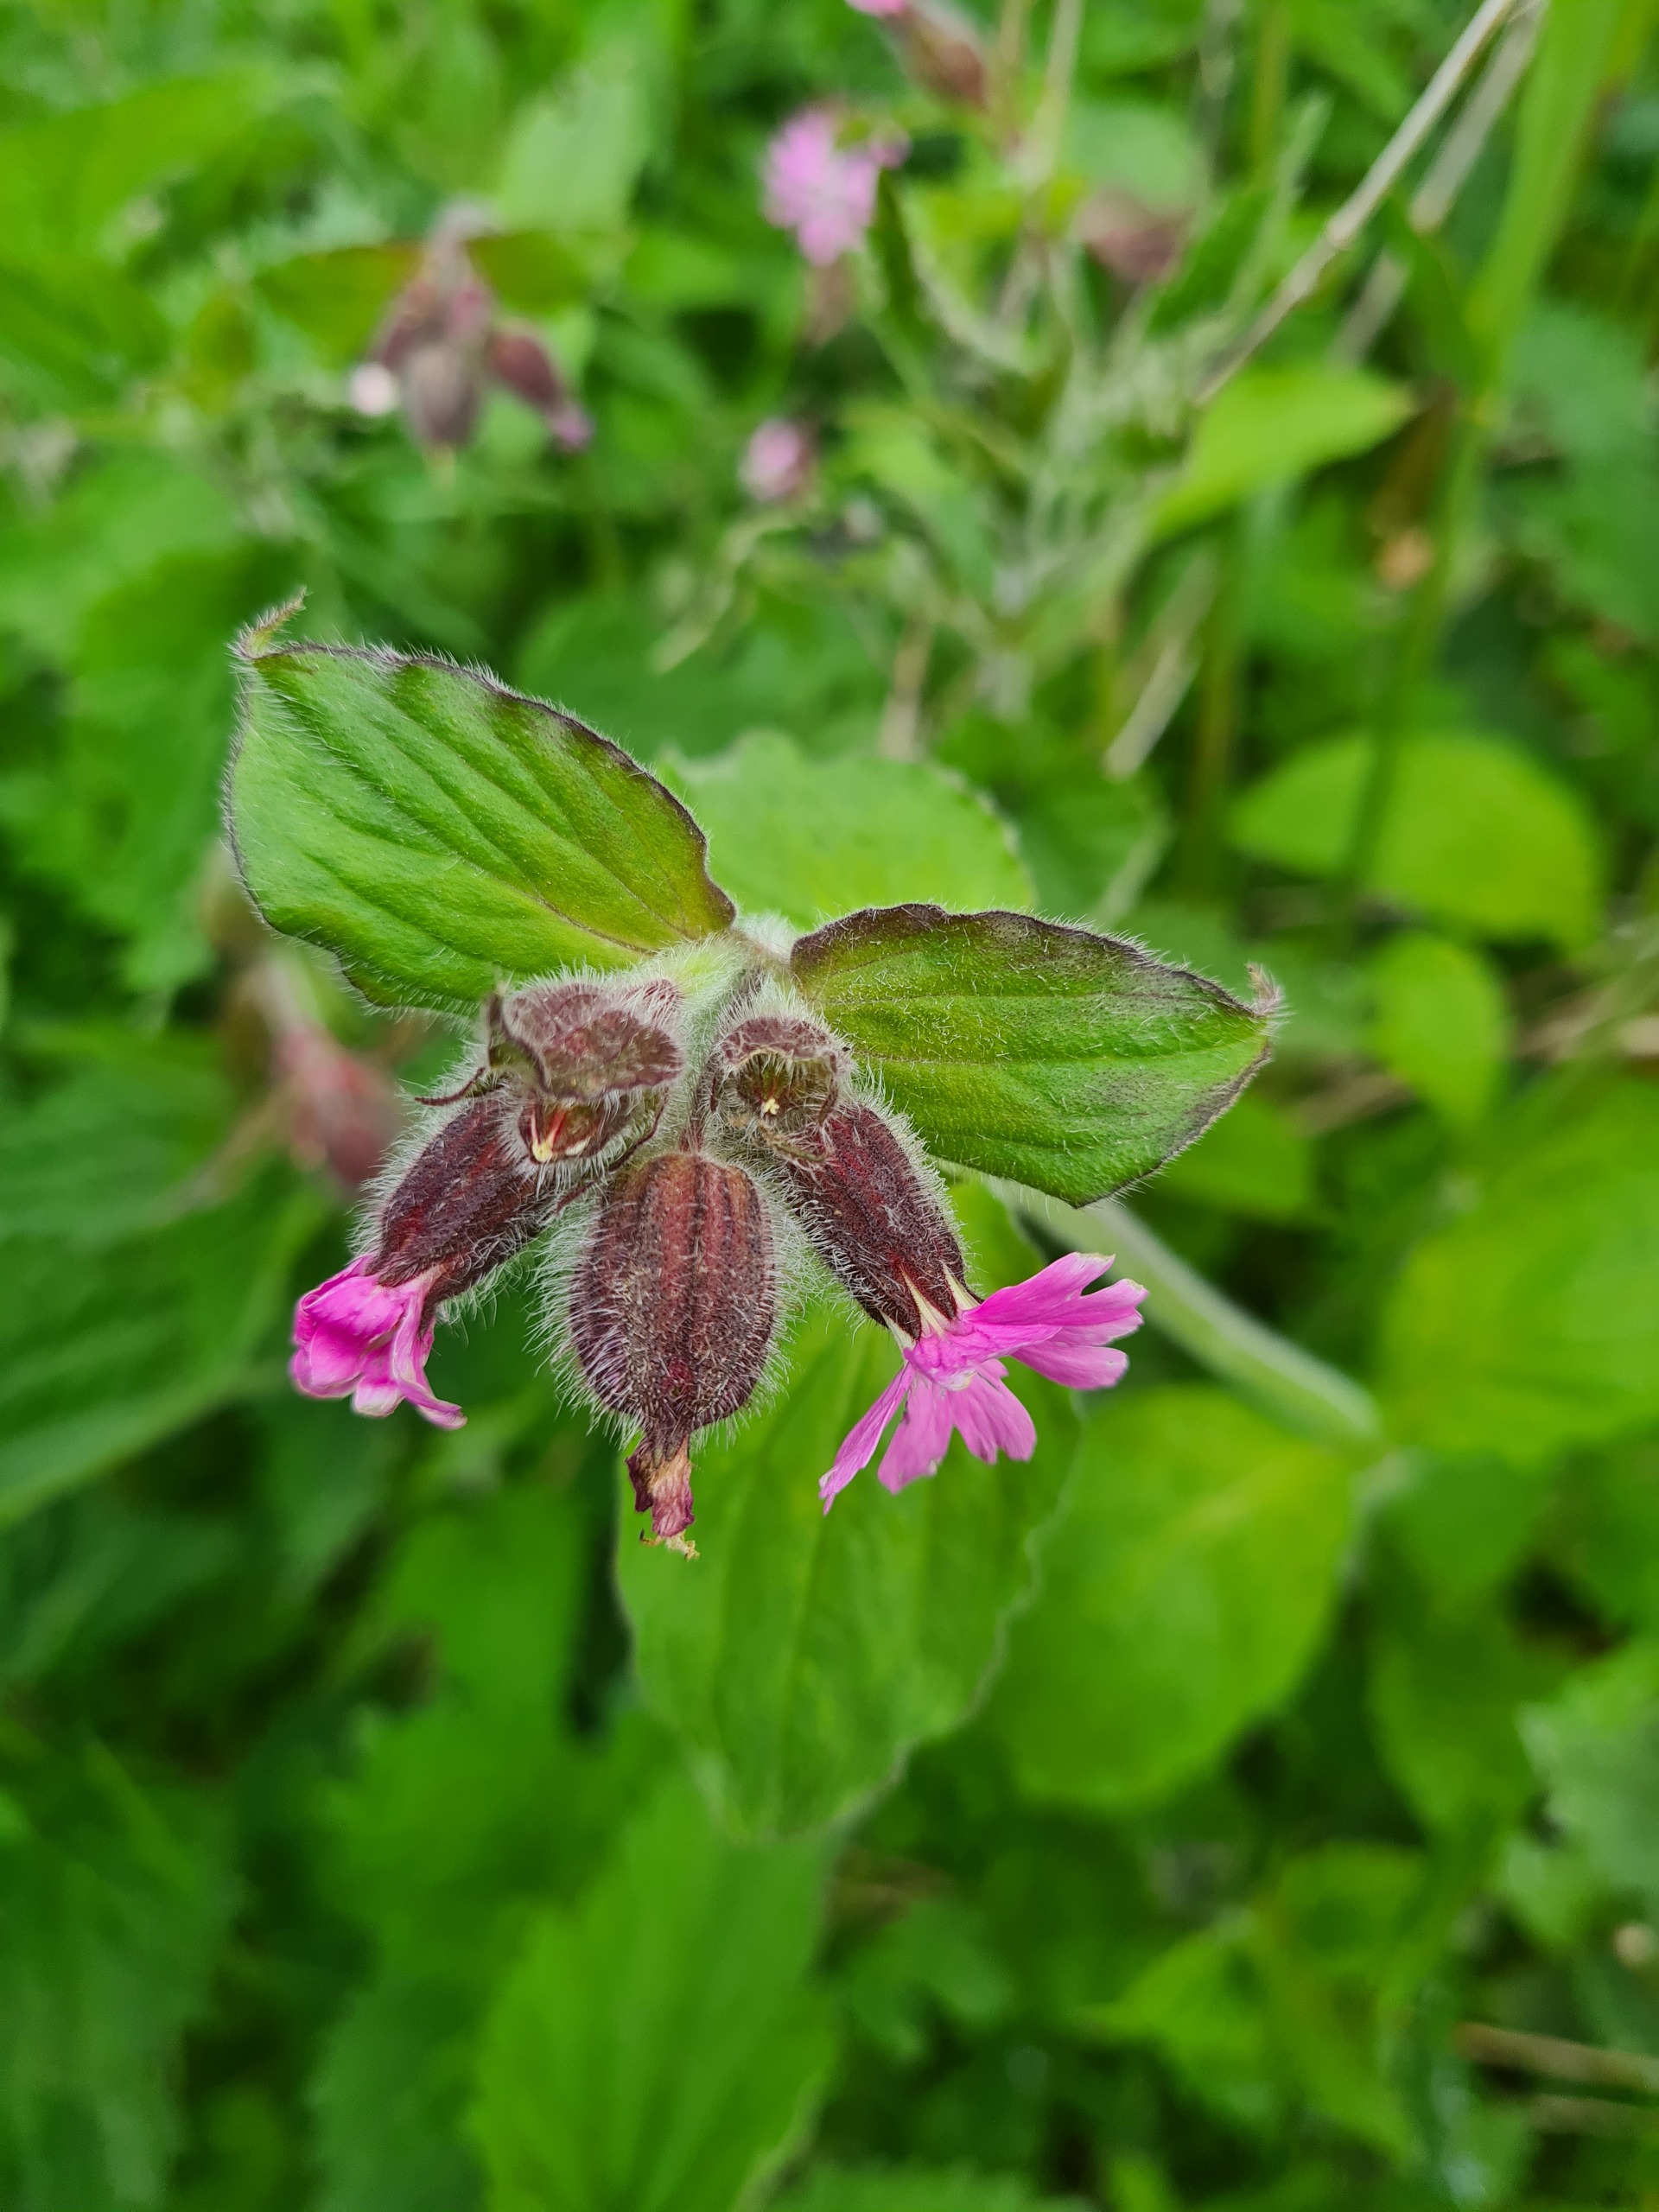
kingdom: Plantae
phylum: Tracheophyta
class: Magnoliopsida
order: Caryophyllales
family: Caryophyllaceae
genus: Silene
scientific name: Silene dioica
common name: Dagpragtstjerne
